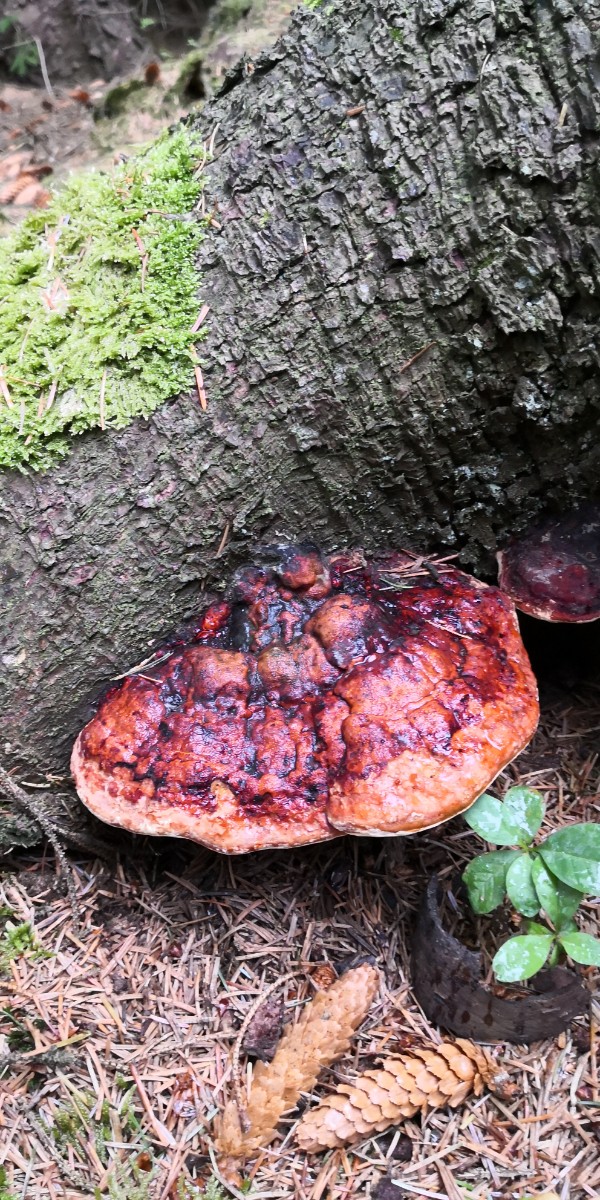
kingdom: Fungi
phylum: Basidiomycota
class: Agaricomycetes
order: Polyporales
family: Fomitopsidaceae
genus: Fomitopsis
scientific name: Fomitopsis pinicola
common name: randbæltet hovporesvamp
